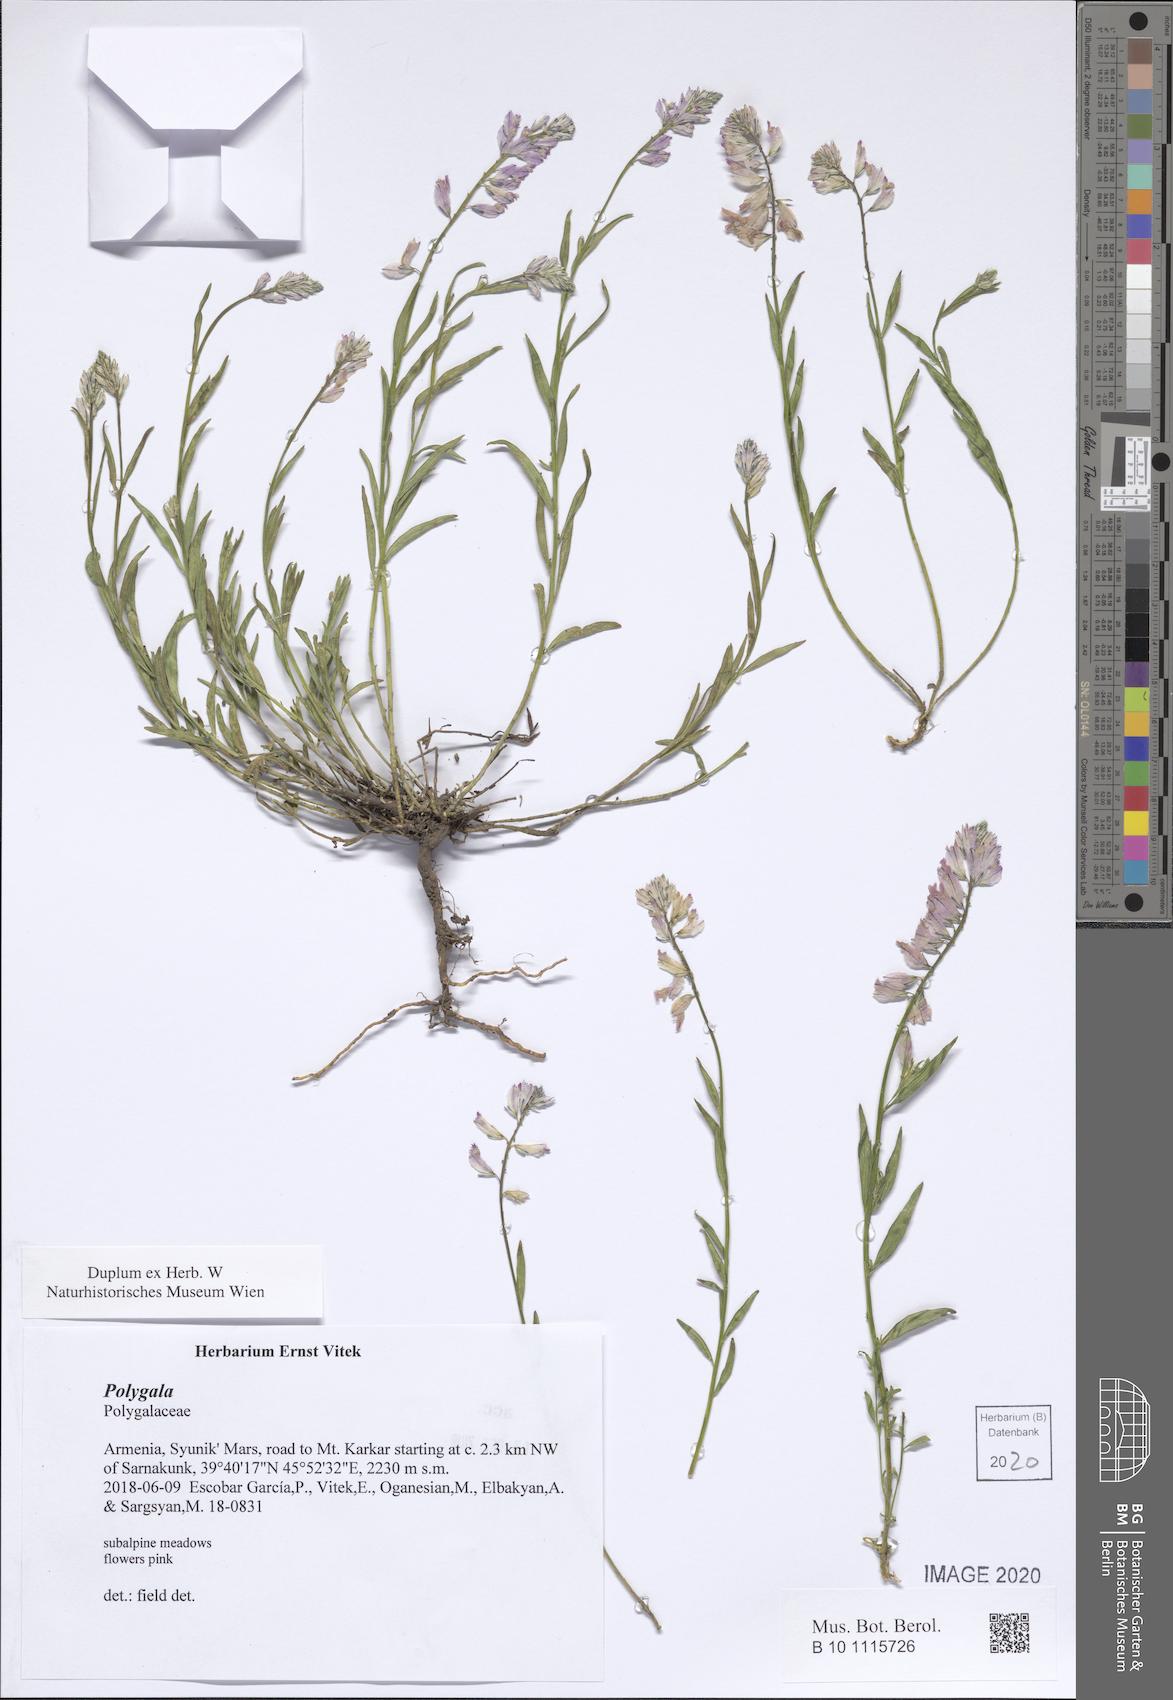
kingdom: Plantae
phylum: Tracheophyta
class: Magnoliopsida
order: Fabales
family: Polygalaceae
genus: Polygala
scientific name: Polygala
